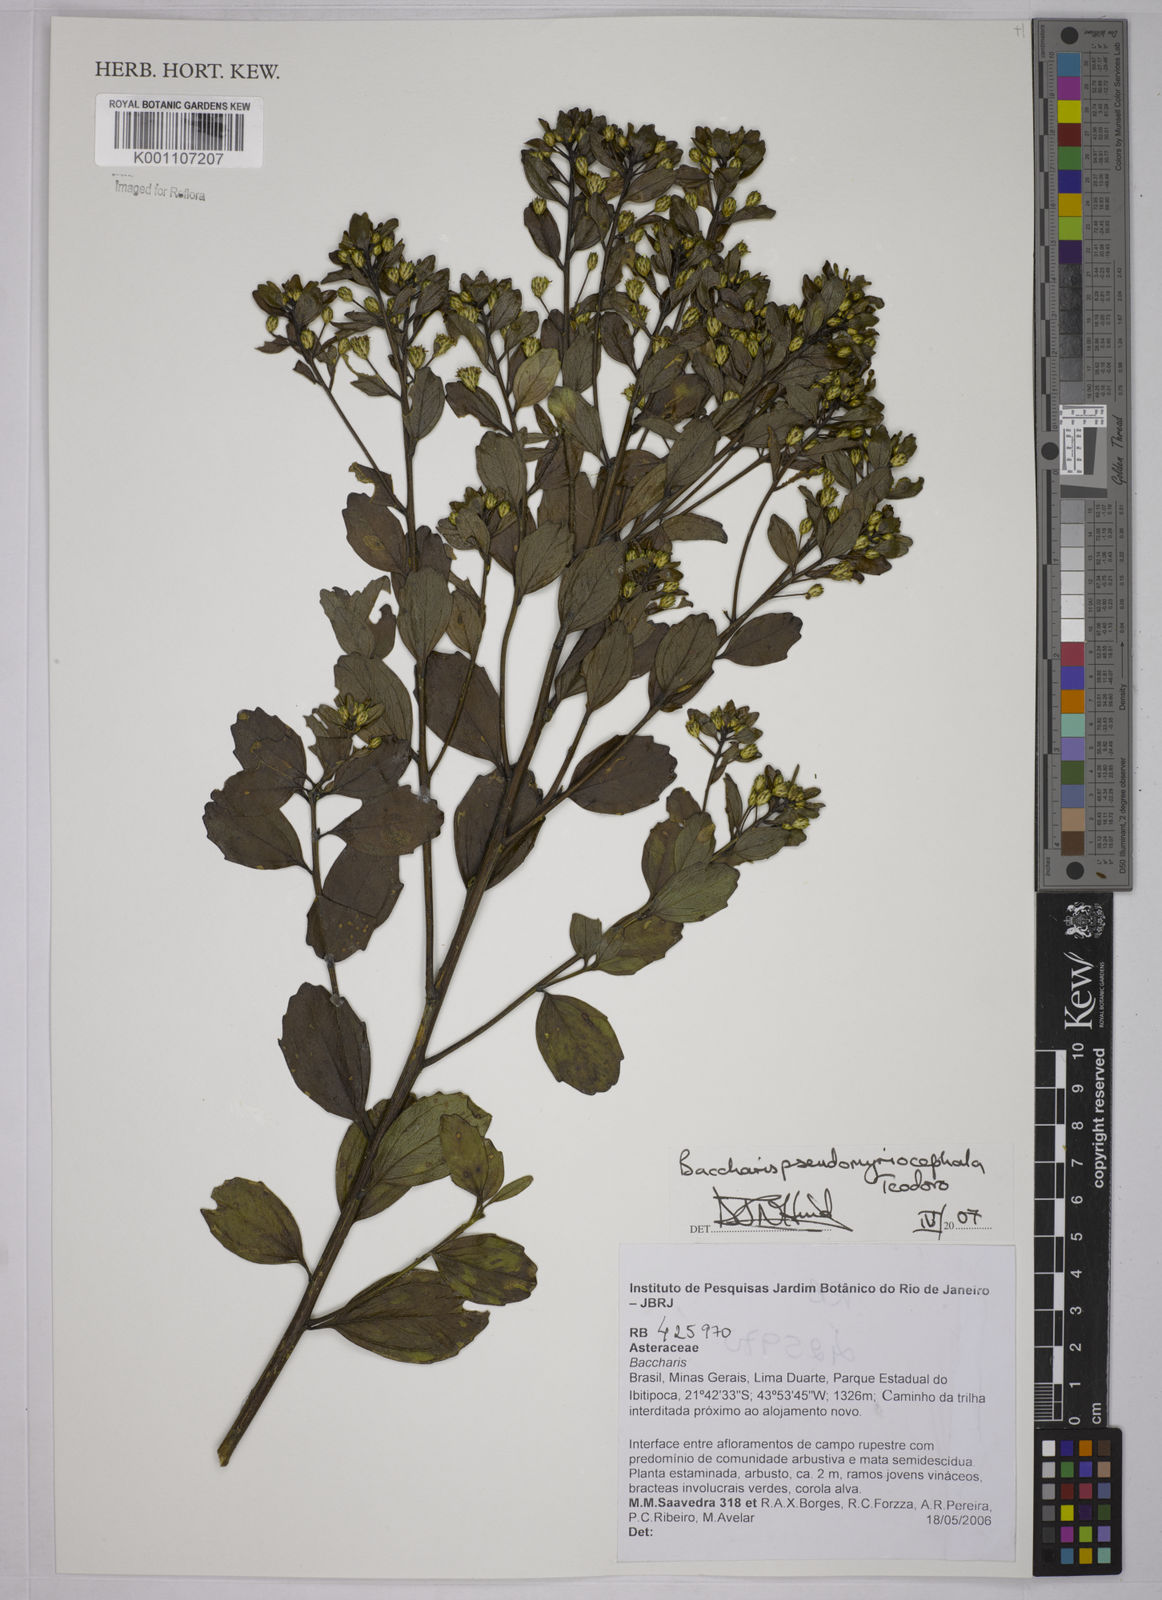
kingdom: Plantae
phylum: Tracheophyta
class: Magnoliopsida
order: Asterales
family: Asteraceae
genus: Baccharis
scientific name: Baccharis pseudomyriocephala
